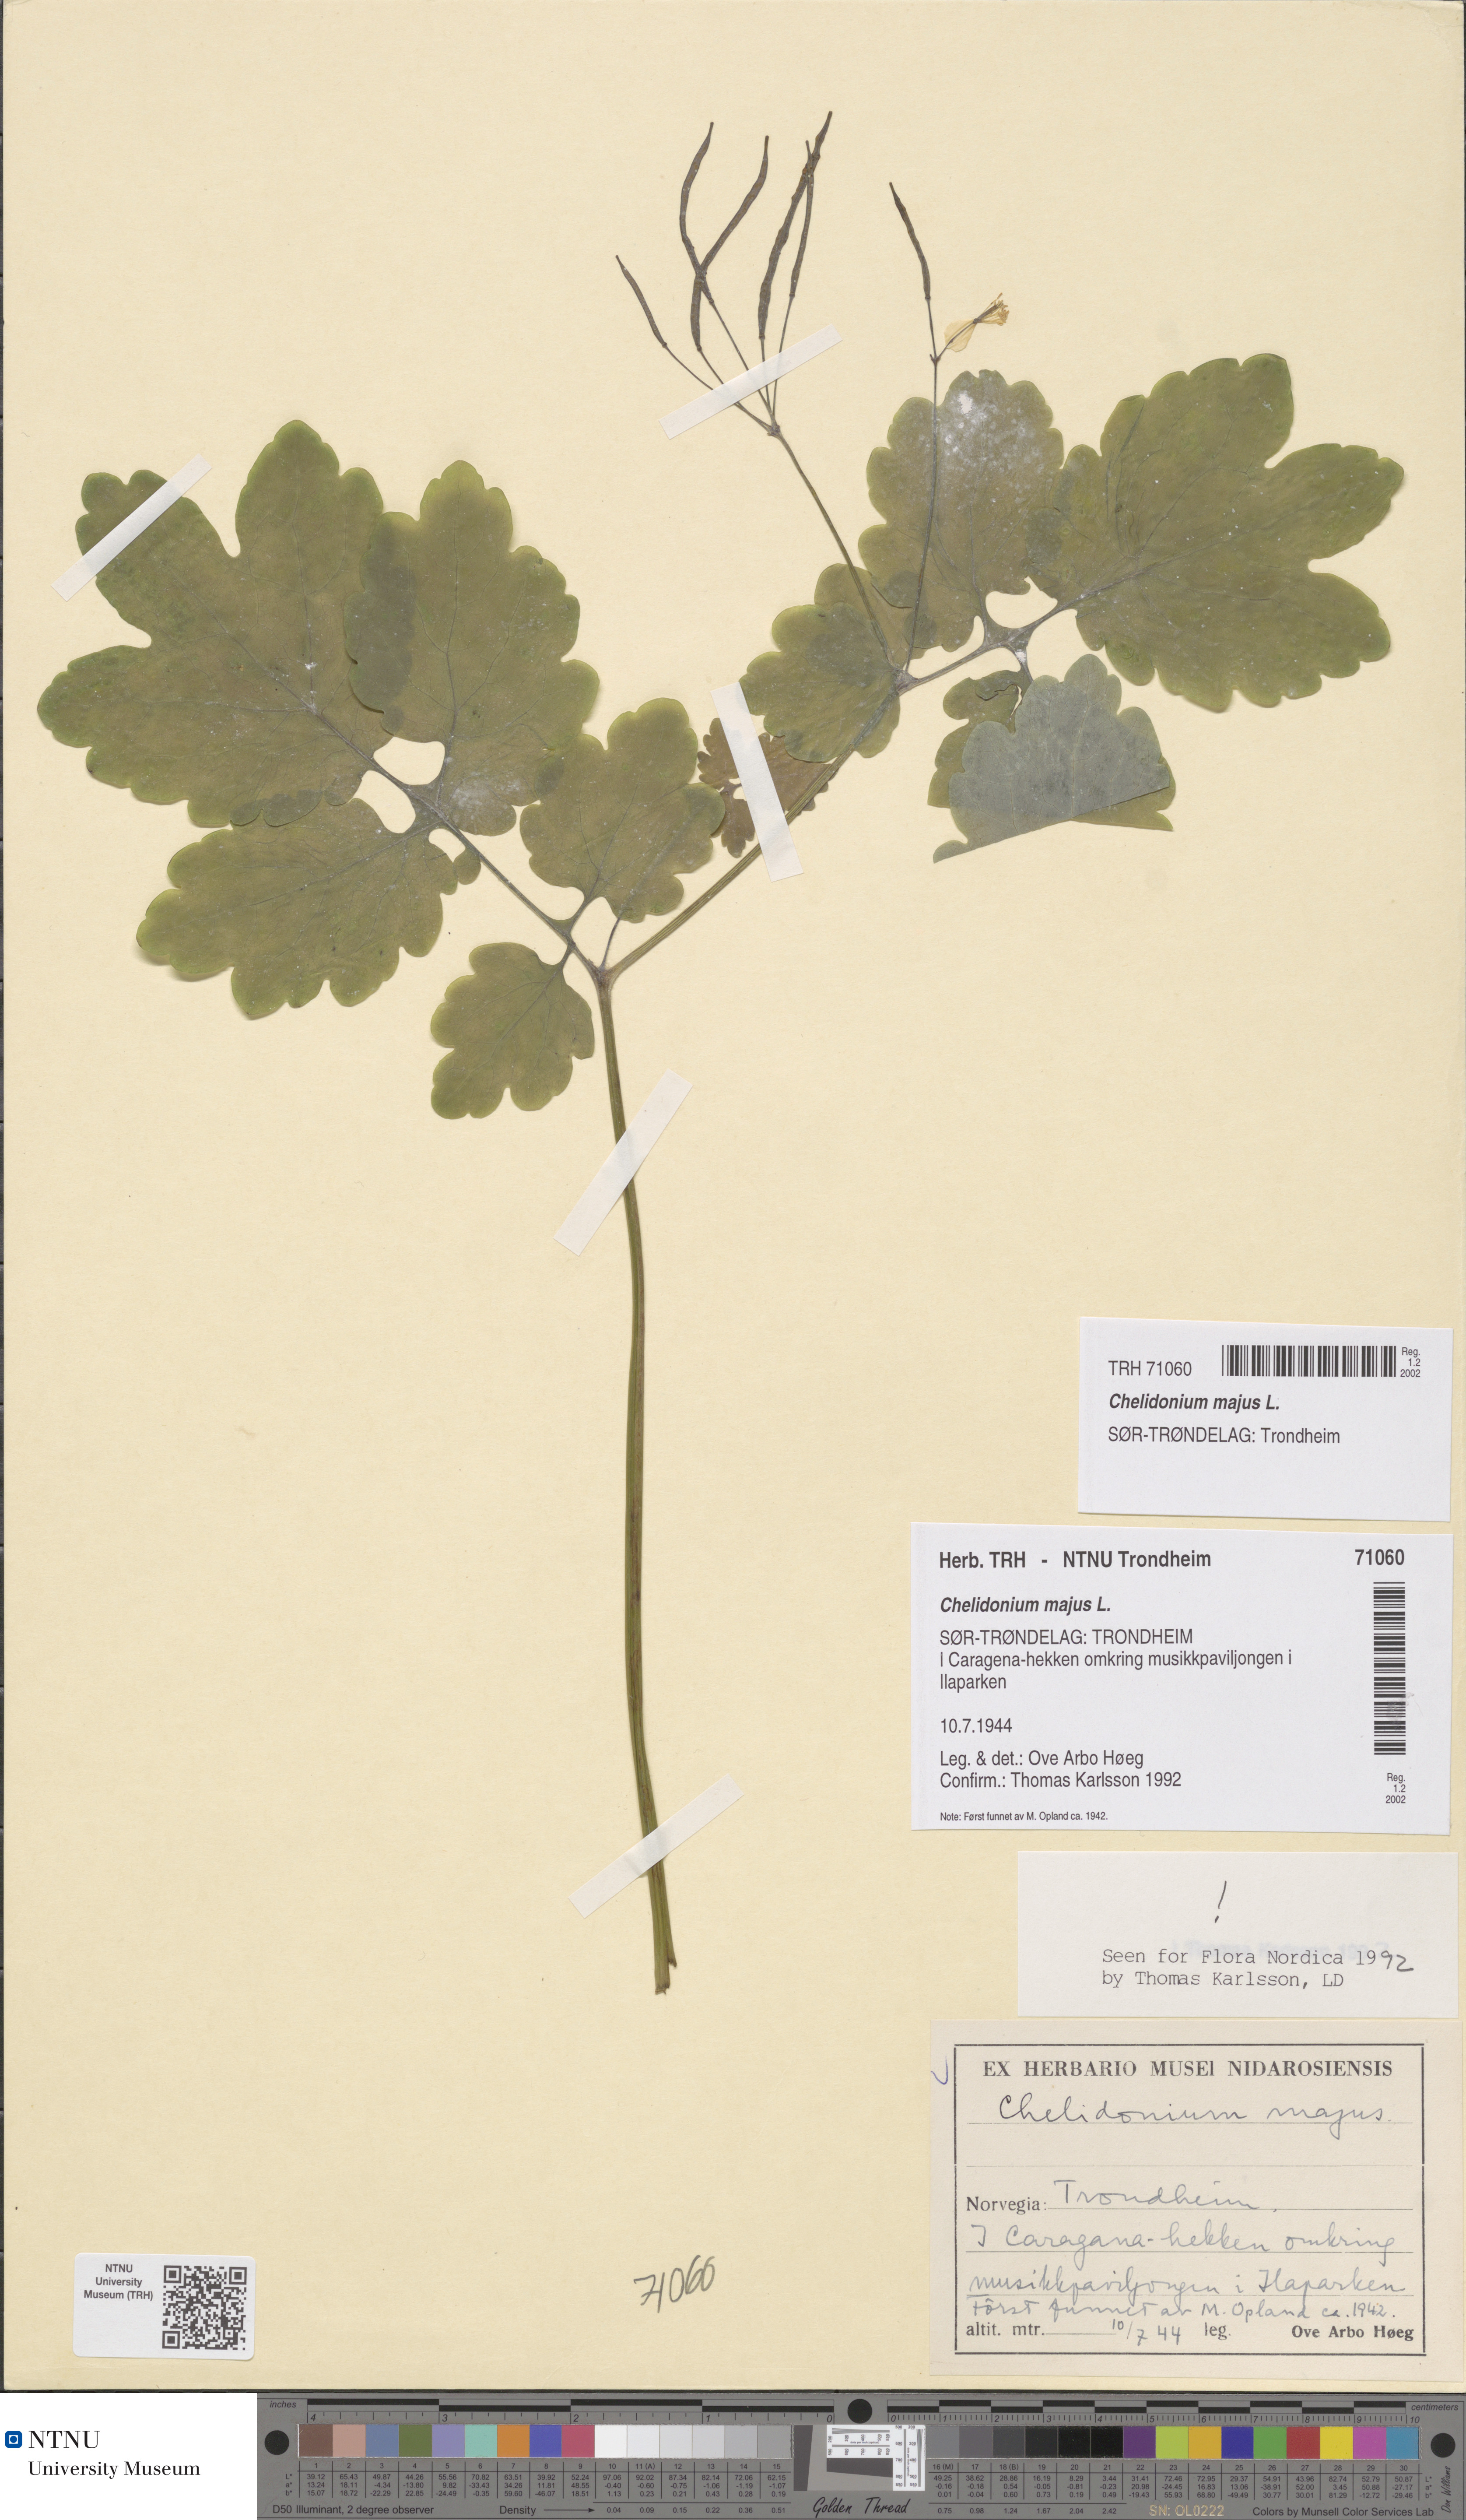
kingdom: Plantae
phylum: Tracheophyta
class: Magnoliopsida
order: Ranunculales
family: Papaveraceae
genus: Chelidonium
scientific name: Chelidonium majus
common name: Greater celandine
